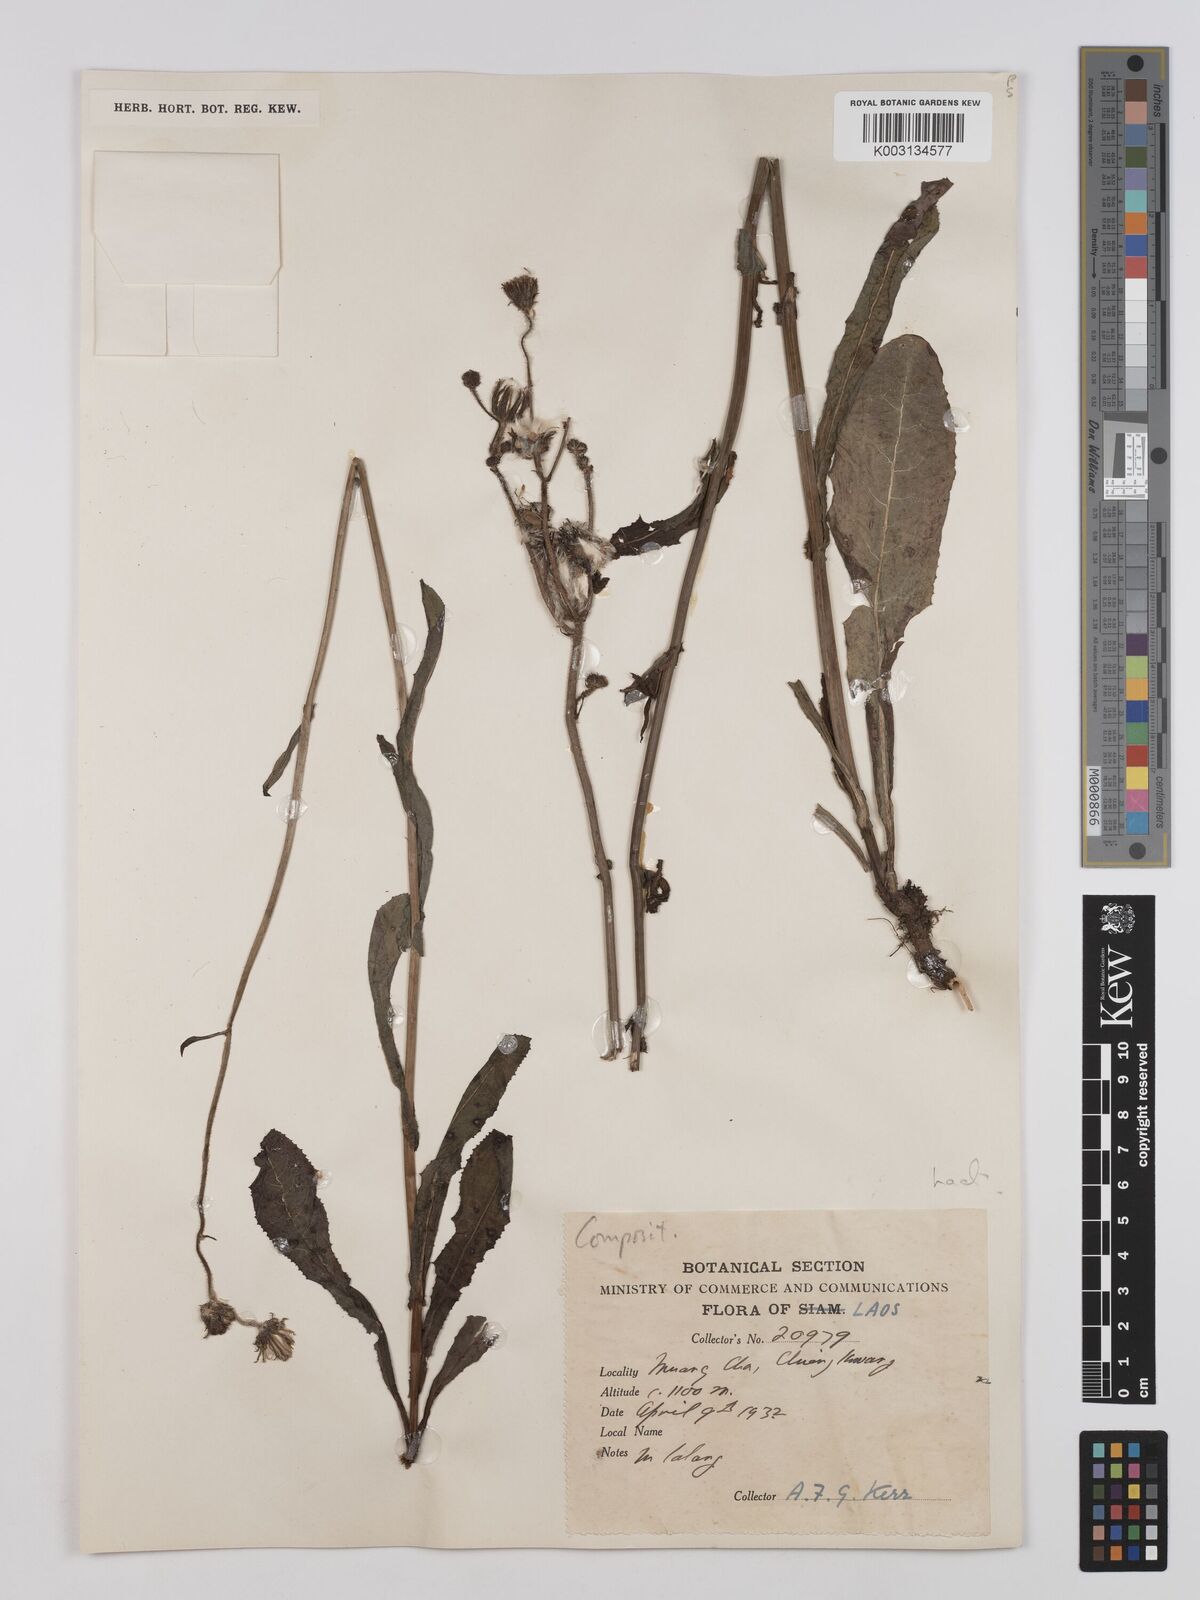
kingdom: Plantae
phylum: Tracheophyta
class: Magnoliopsida
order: Asterales
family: Asteraceae
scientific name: Asteraceae
